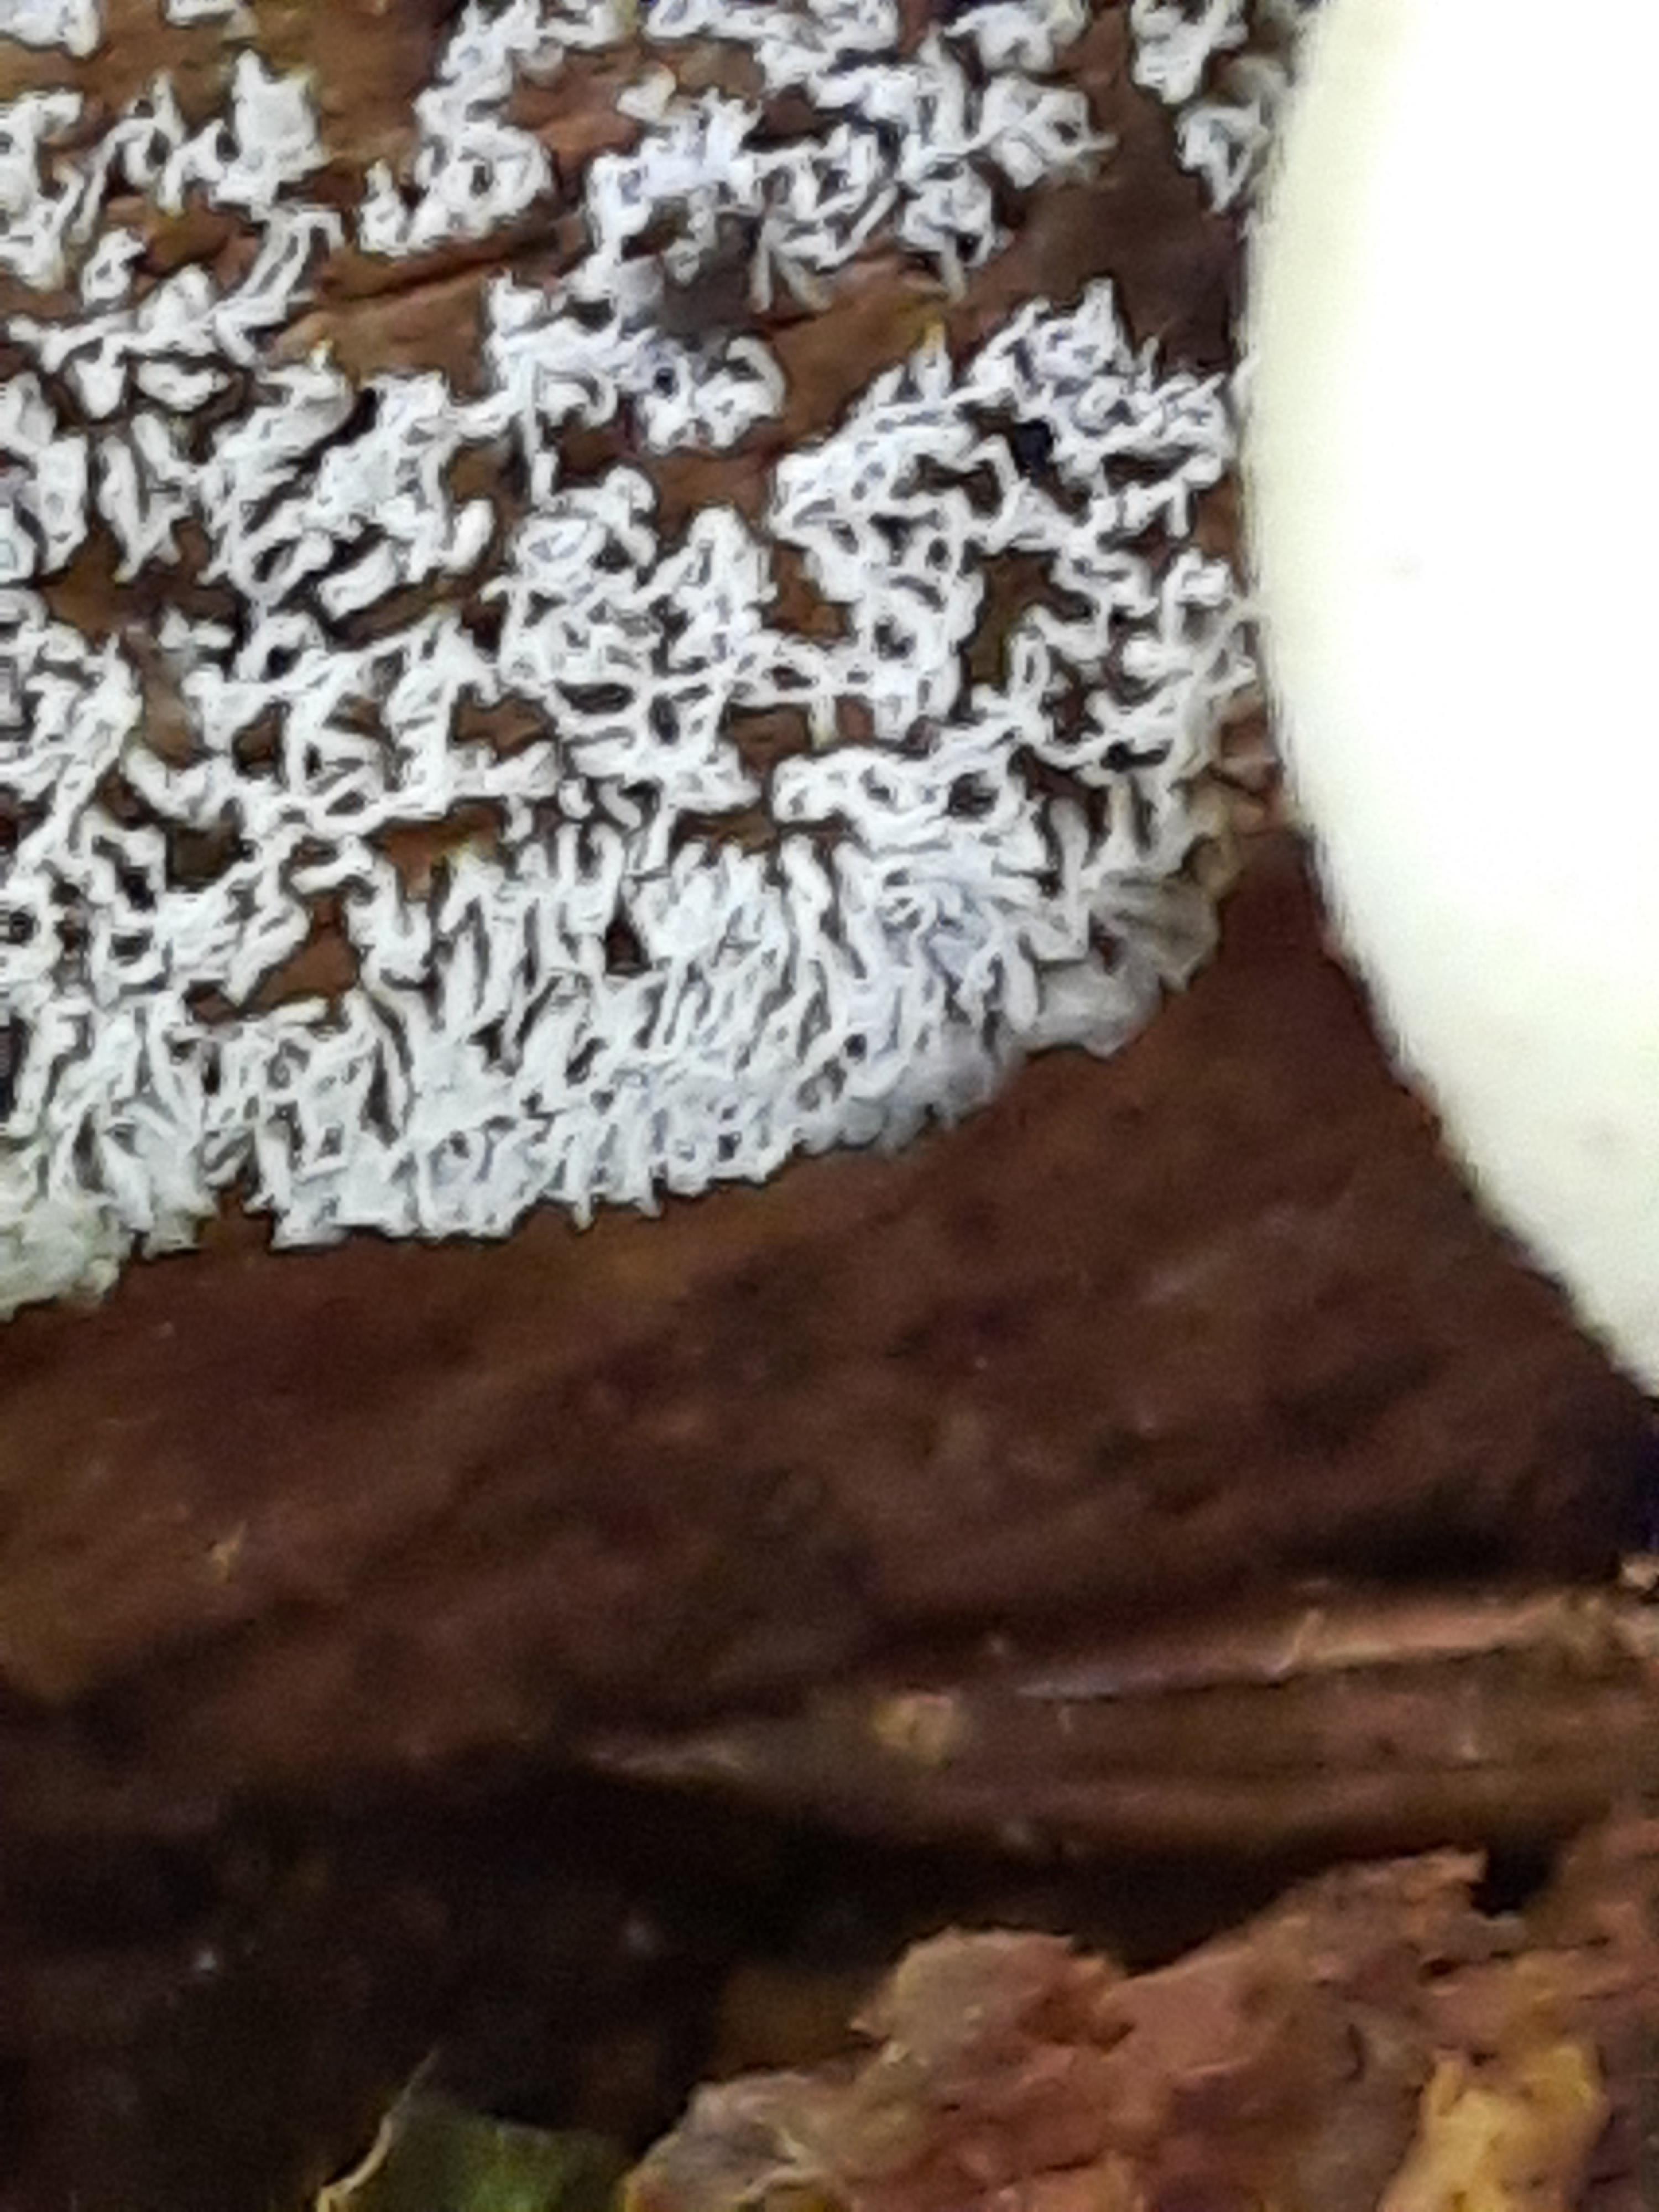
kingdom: Protozoa
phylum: Mycetozoa
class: Protosteliomycetes
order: Ceratiomyxales
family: Ceratiomyxaceae
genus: Ceratiomyxa
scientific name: Ceratiomyxa fruticulosa
